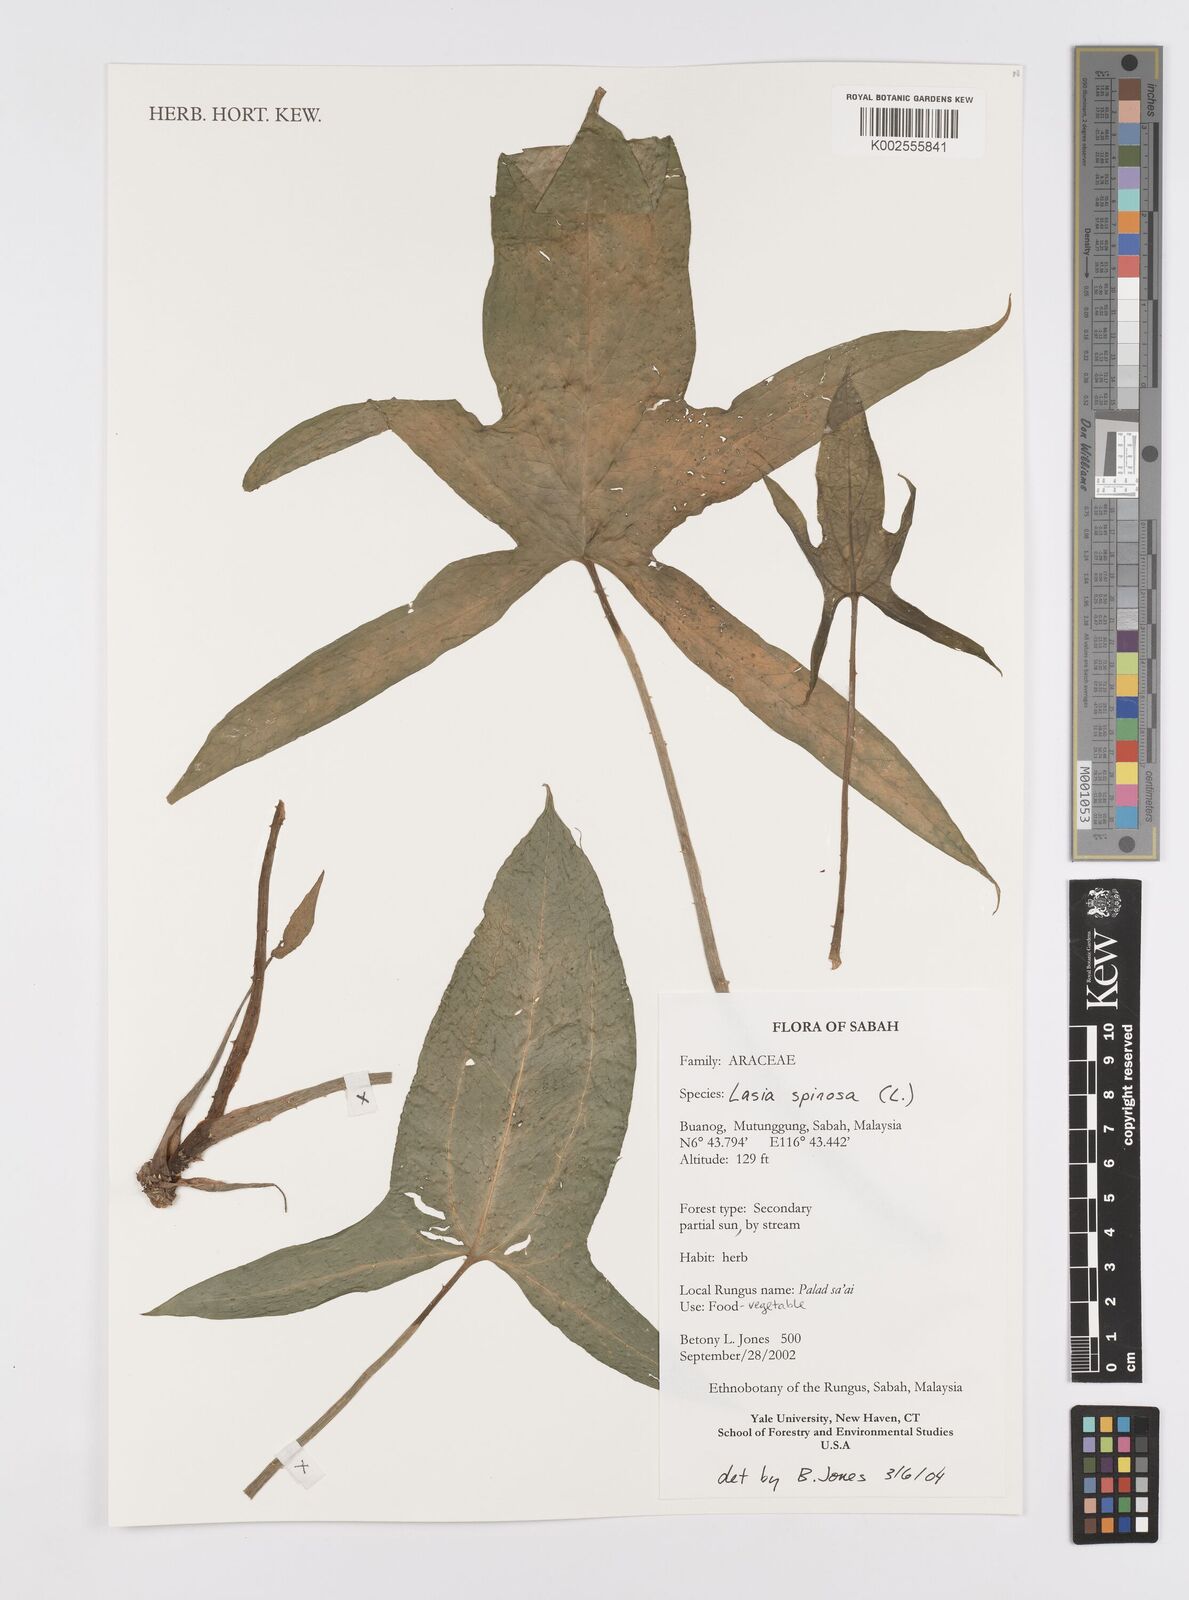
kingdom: Plantae
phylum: Tracheophyta
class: Liliopsida
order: Alismatales
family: Araceae
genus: Lasia
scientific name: Lasia spinosa
